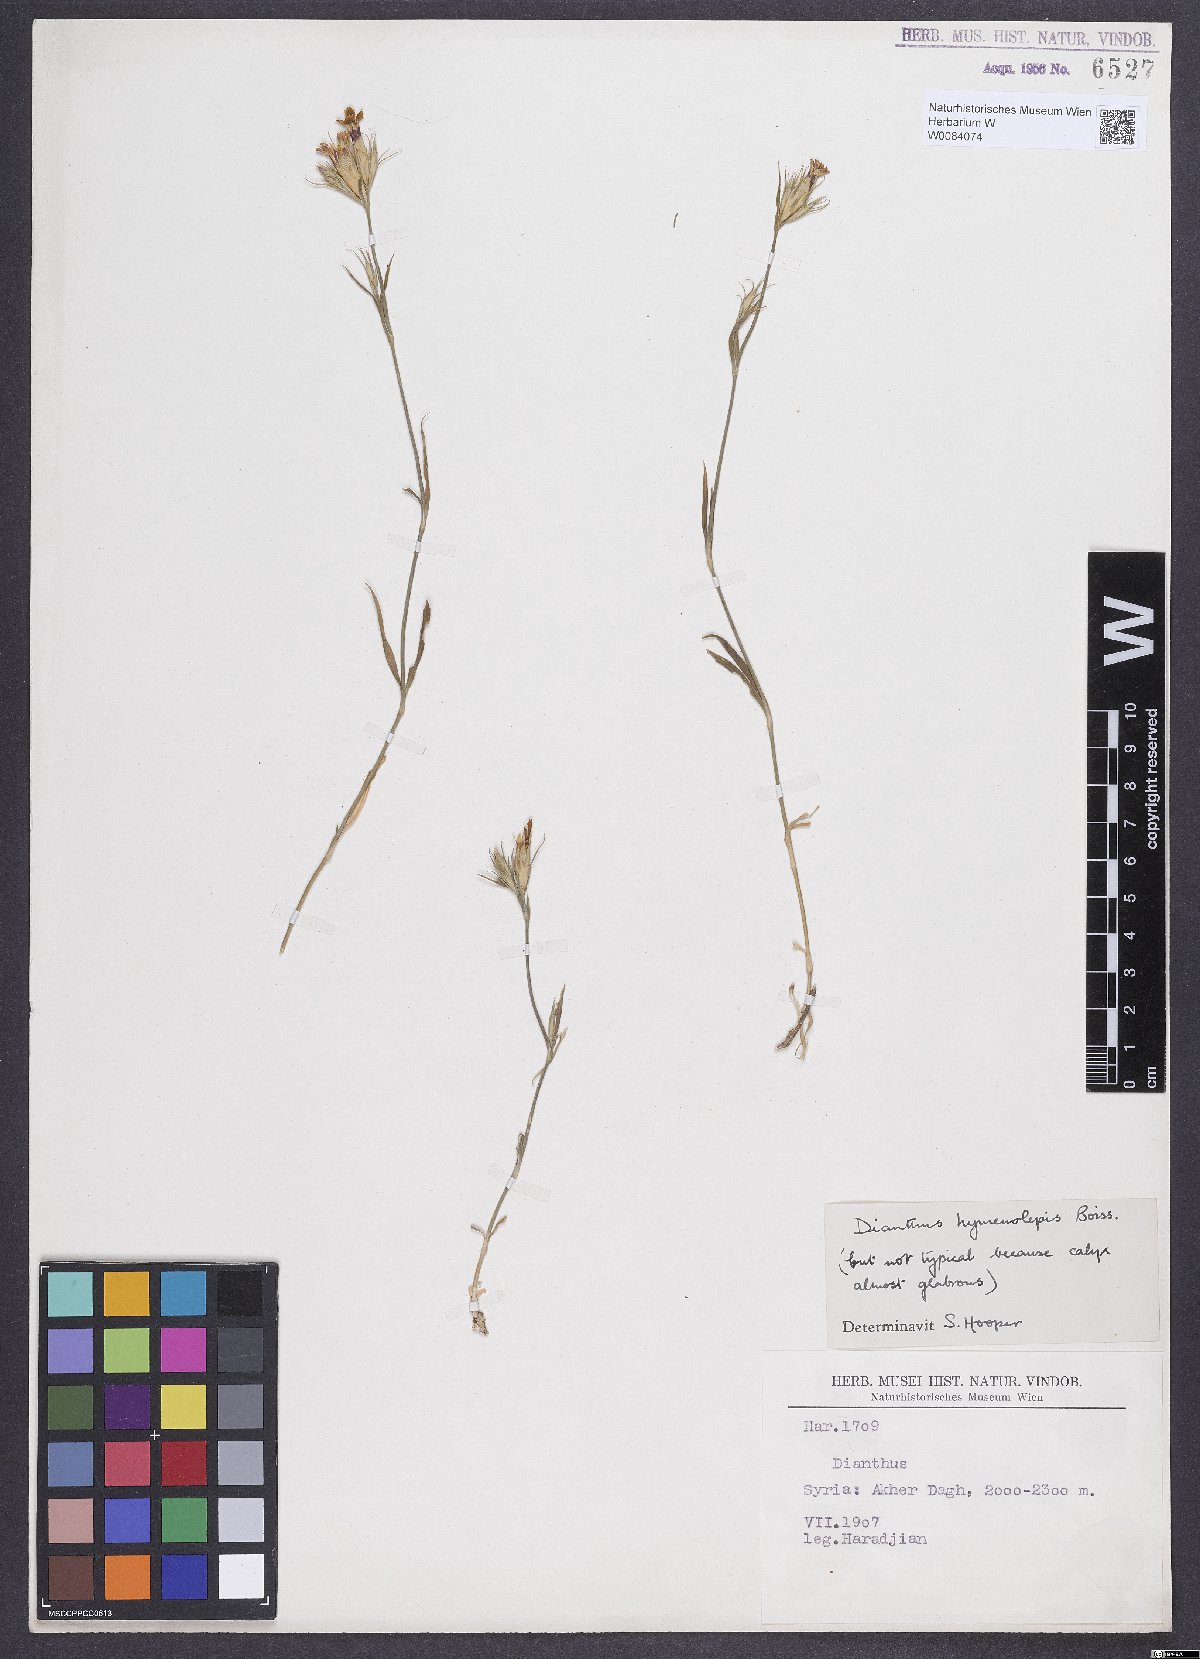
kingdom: Plantae
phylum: Tracheophyta
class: Magnoliopsida
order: Caryophyllales
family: Caryophyllaceae
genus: Dianthus
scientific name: Dianthus hymenolepis
